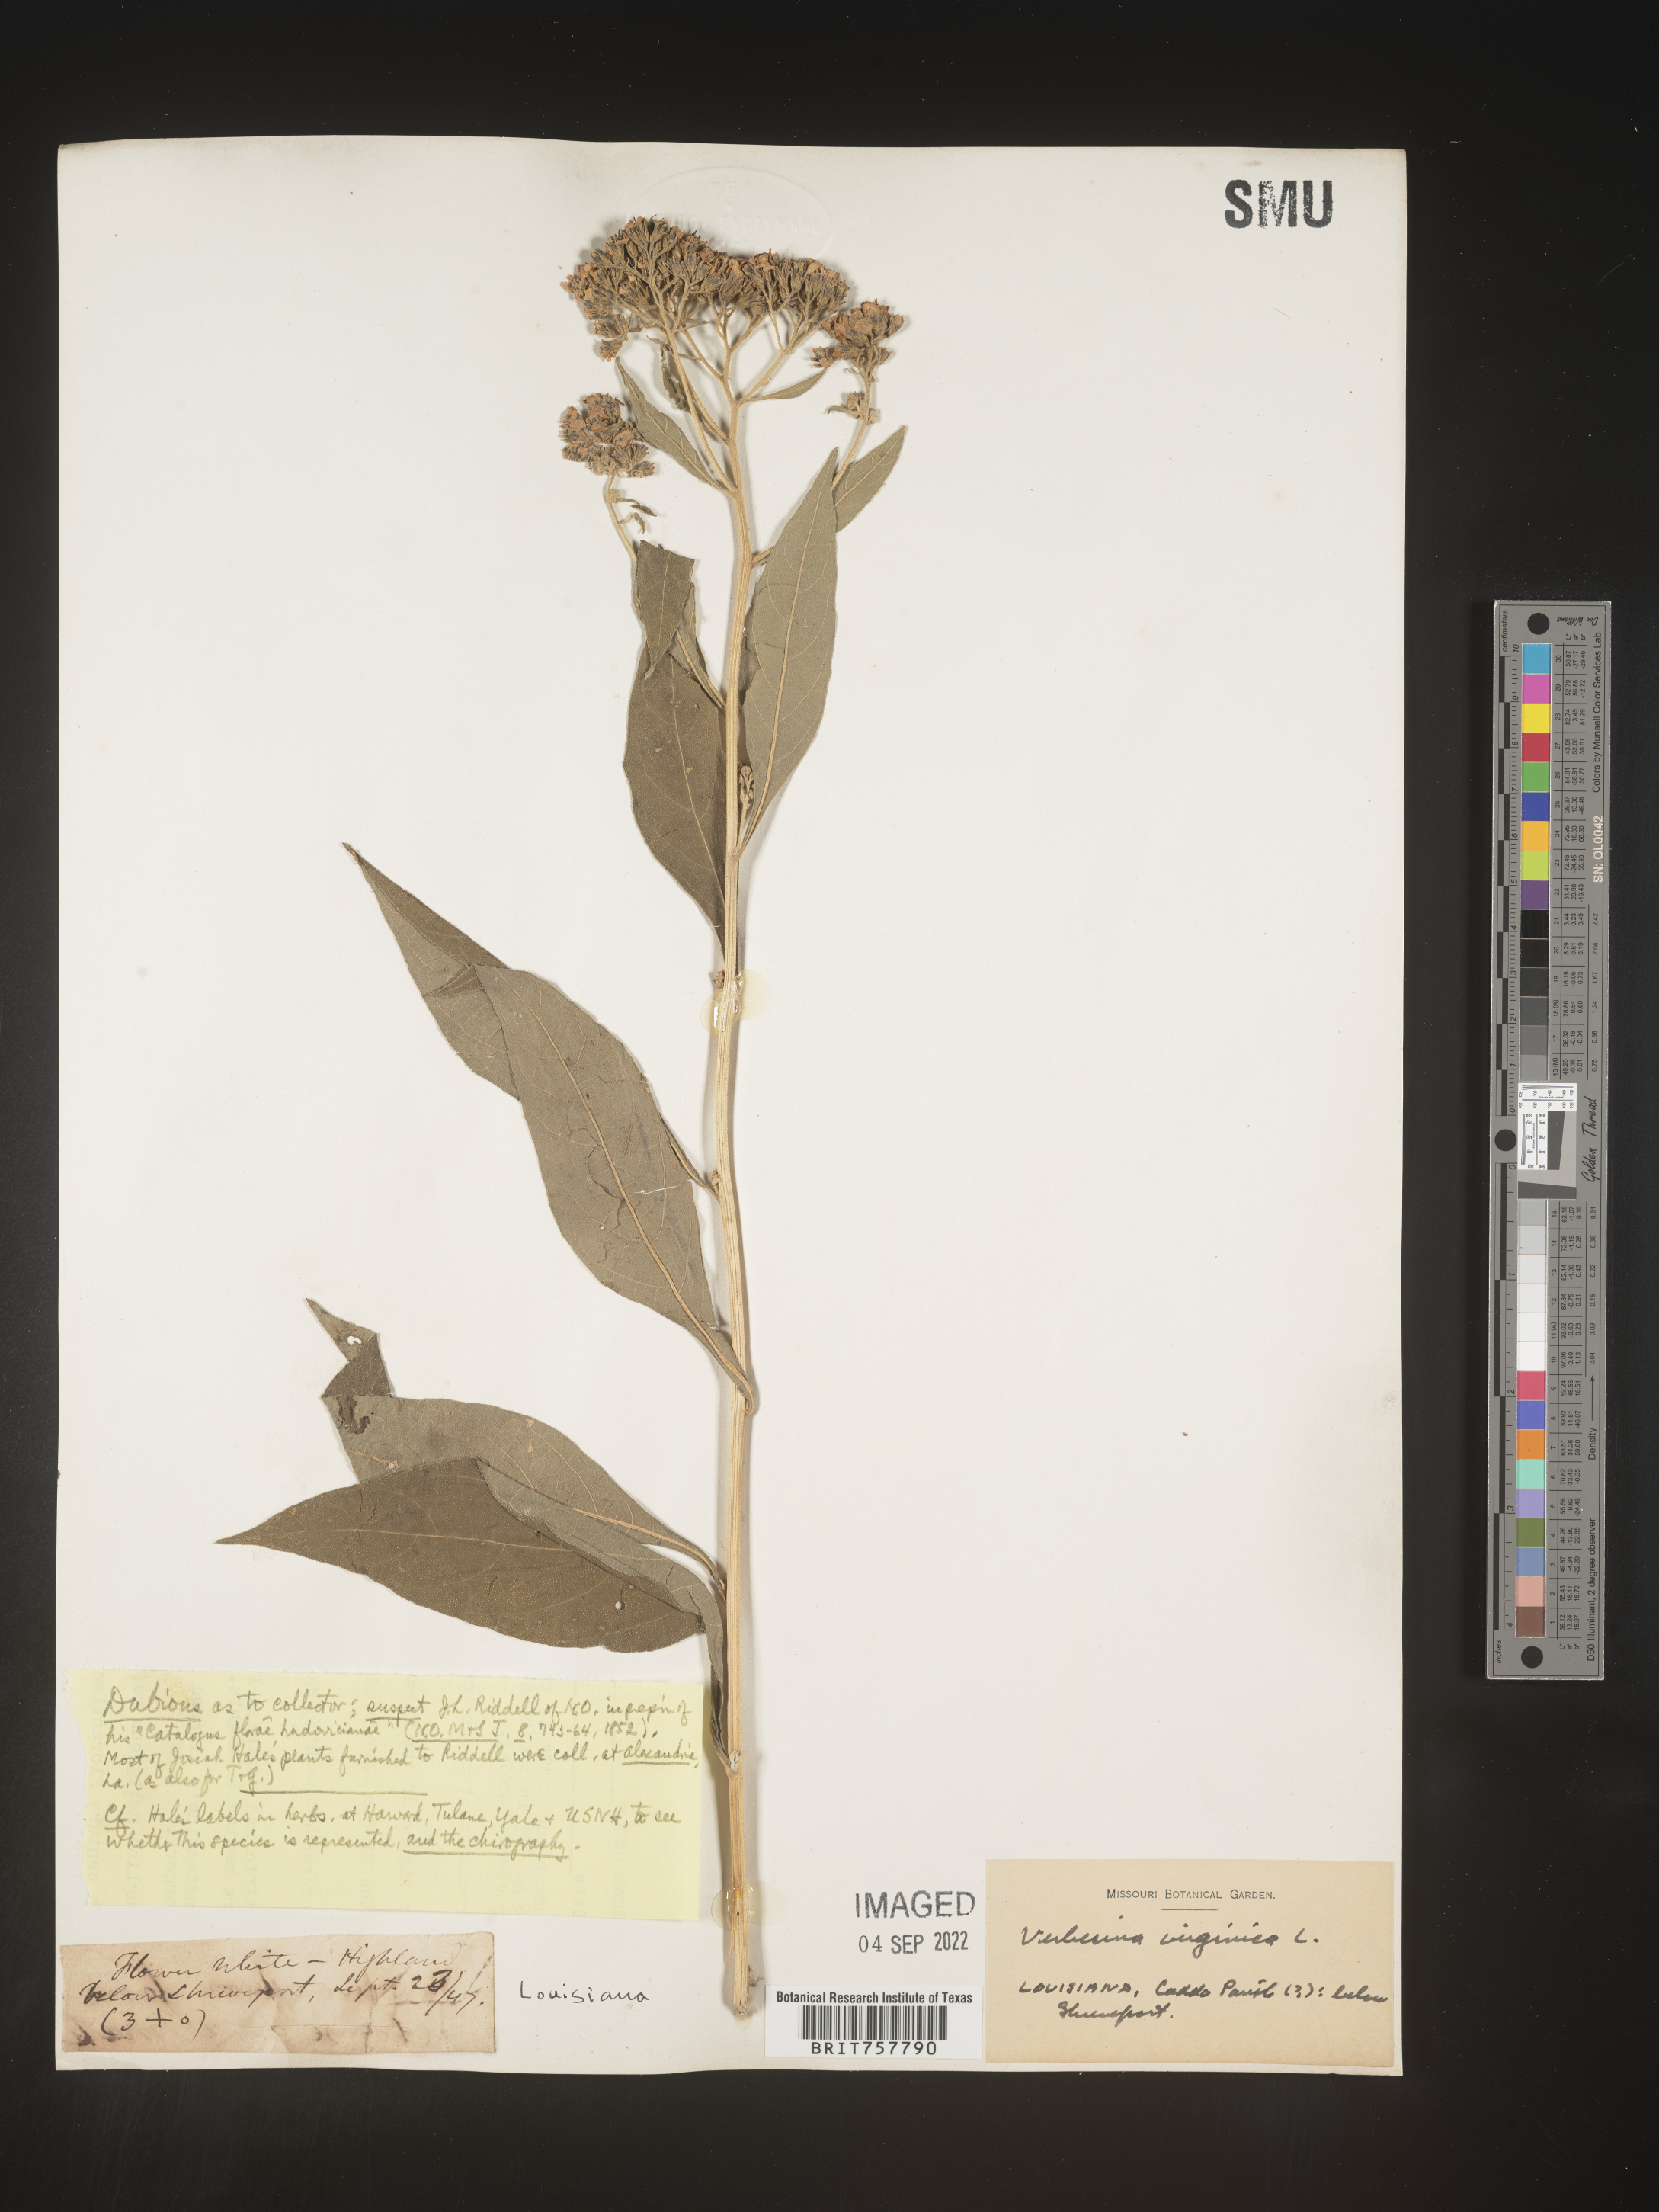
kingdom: Plantae
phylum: Tracheophyta
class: Magnoliopsida
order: Asterales
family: Asteraceae
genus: Verbesina
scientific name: Verbesina virginica
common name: Frostweed
